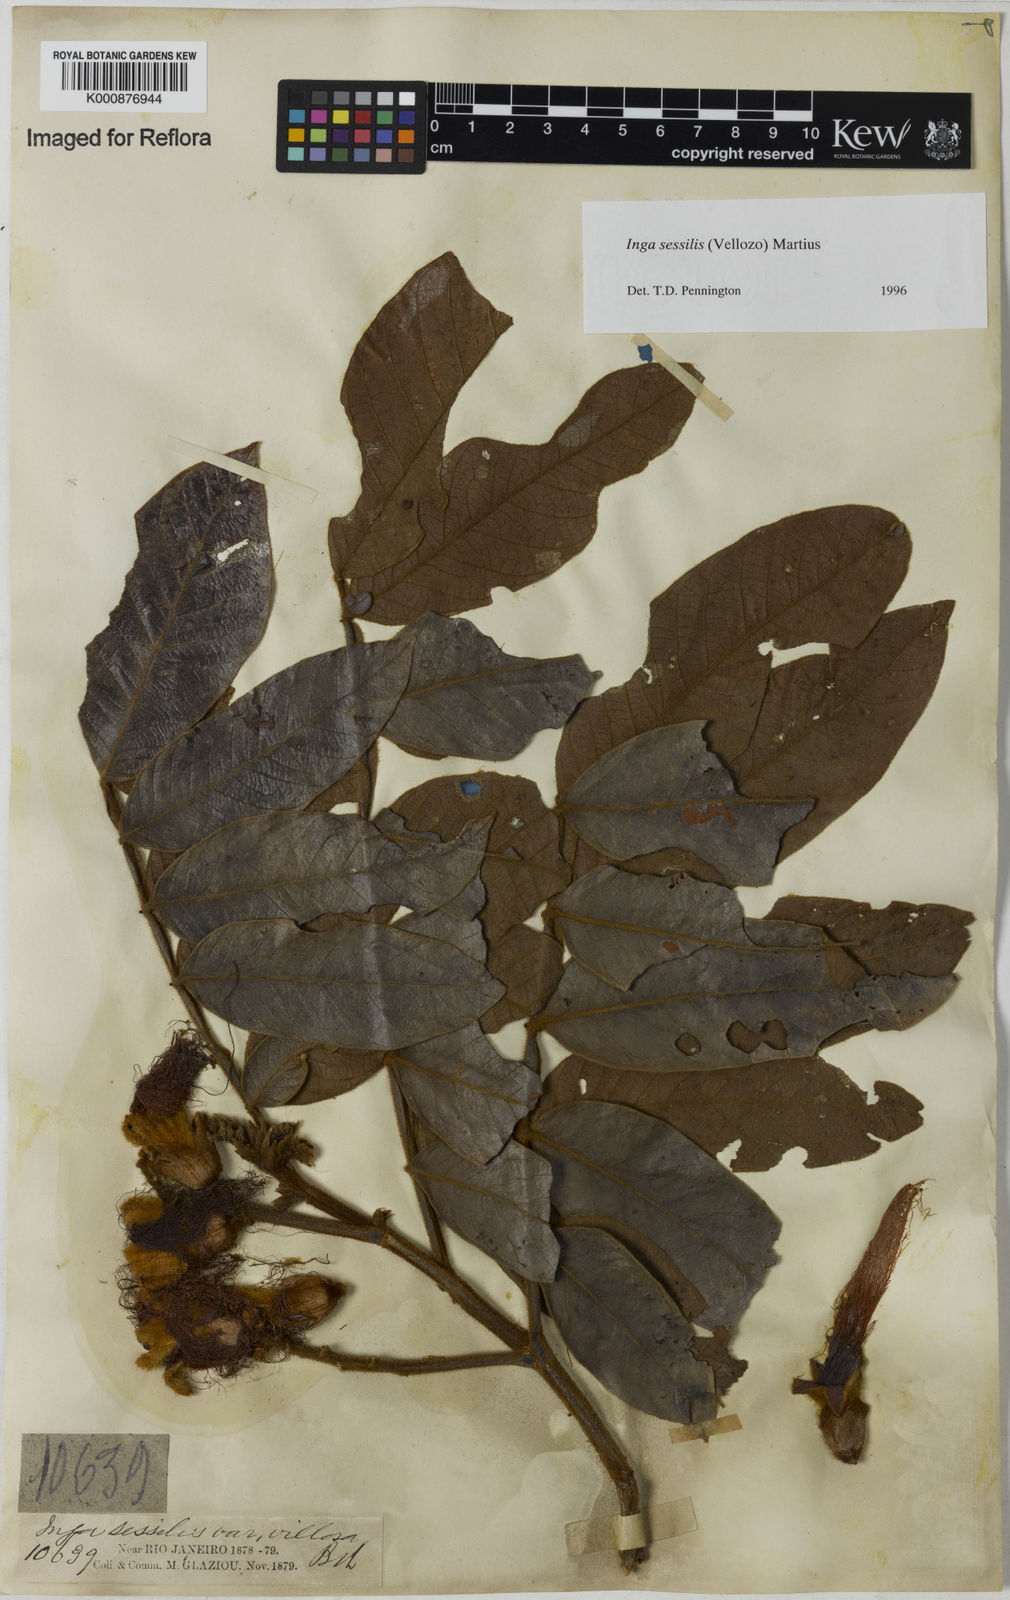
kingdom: Plantae
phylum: Tracheophyta
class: Magnoliopsida
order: Fabales
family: Fabaceae
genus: Inga
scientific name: Inga sessilis
